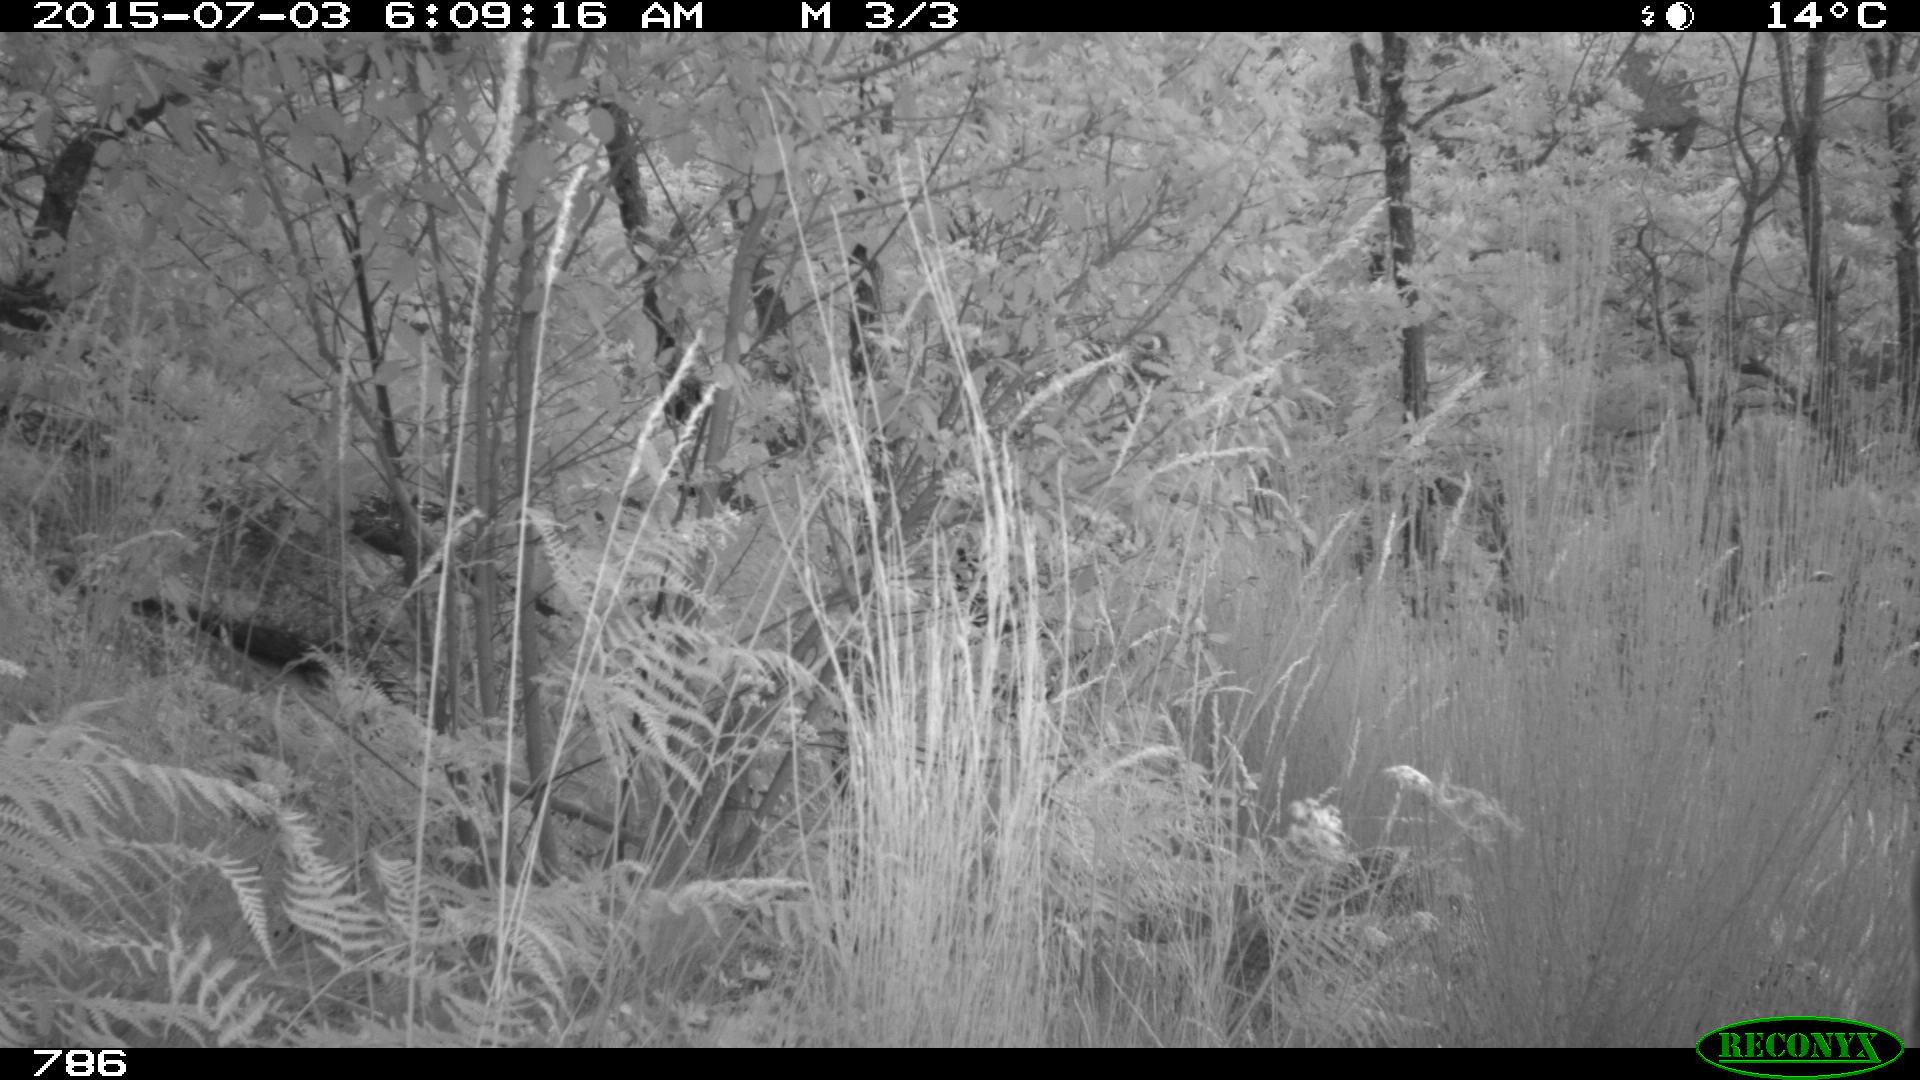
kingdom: Animalia
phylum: Chordata
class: Mammalia
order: Artiodactyla
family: Suidae
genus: Sus
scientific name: Sus scrofa
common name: Wild boar
